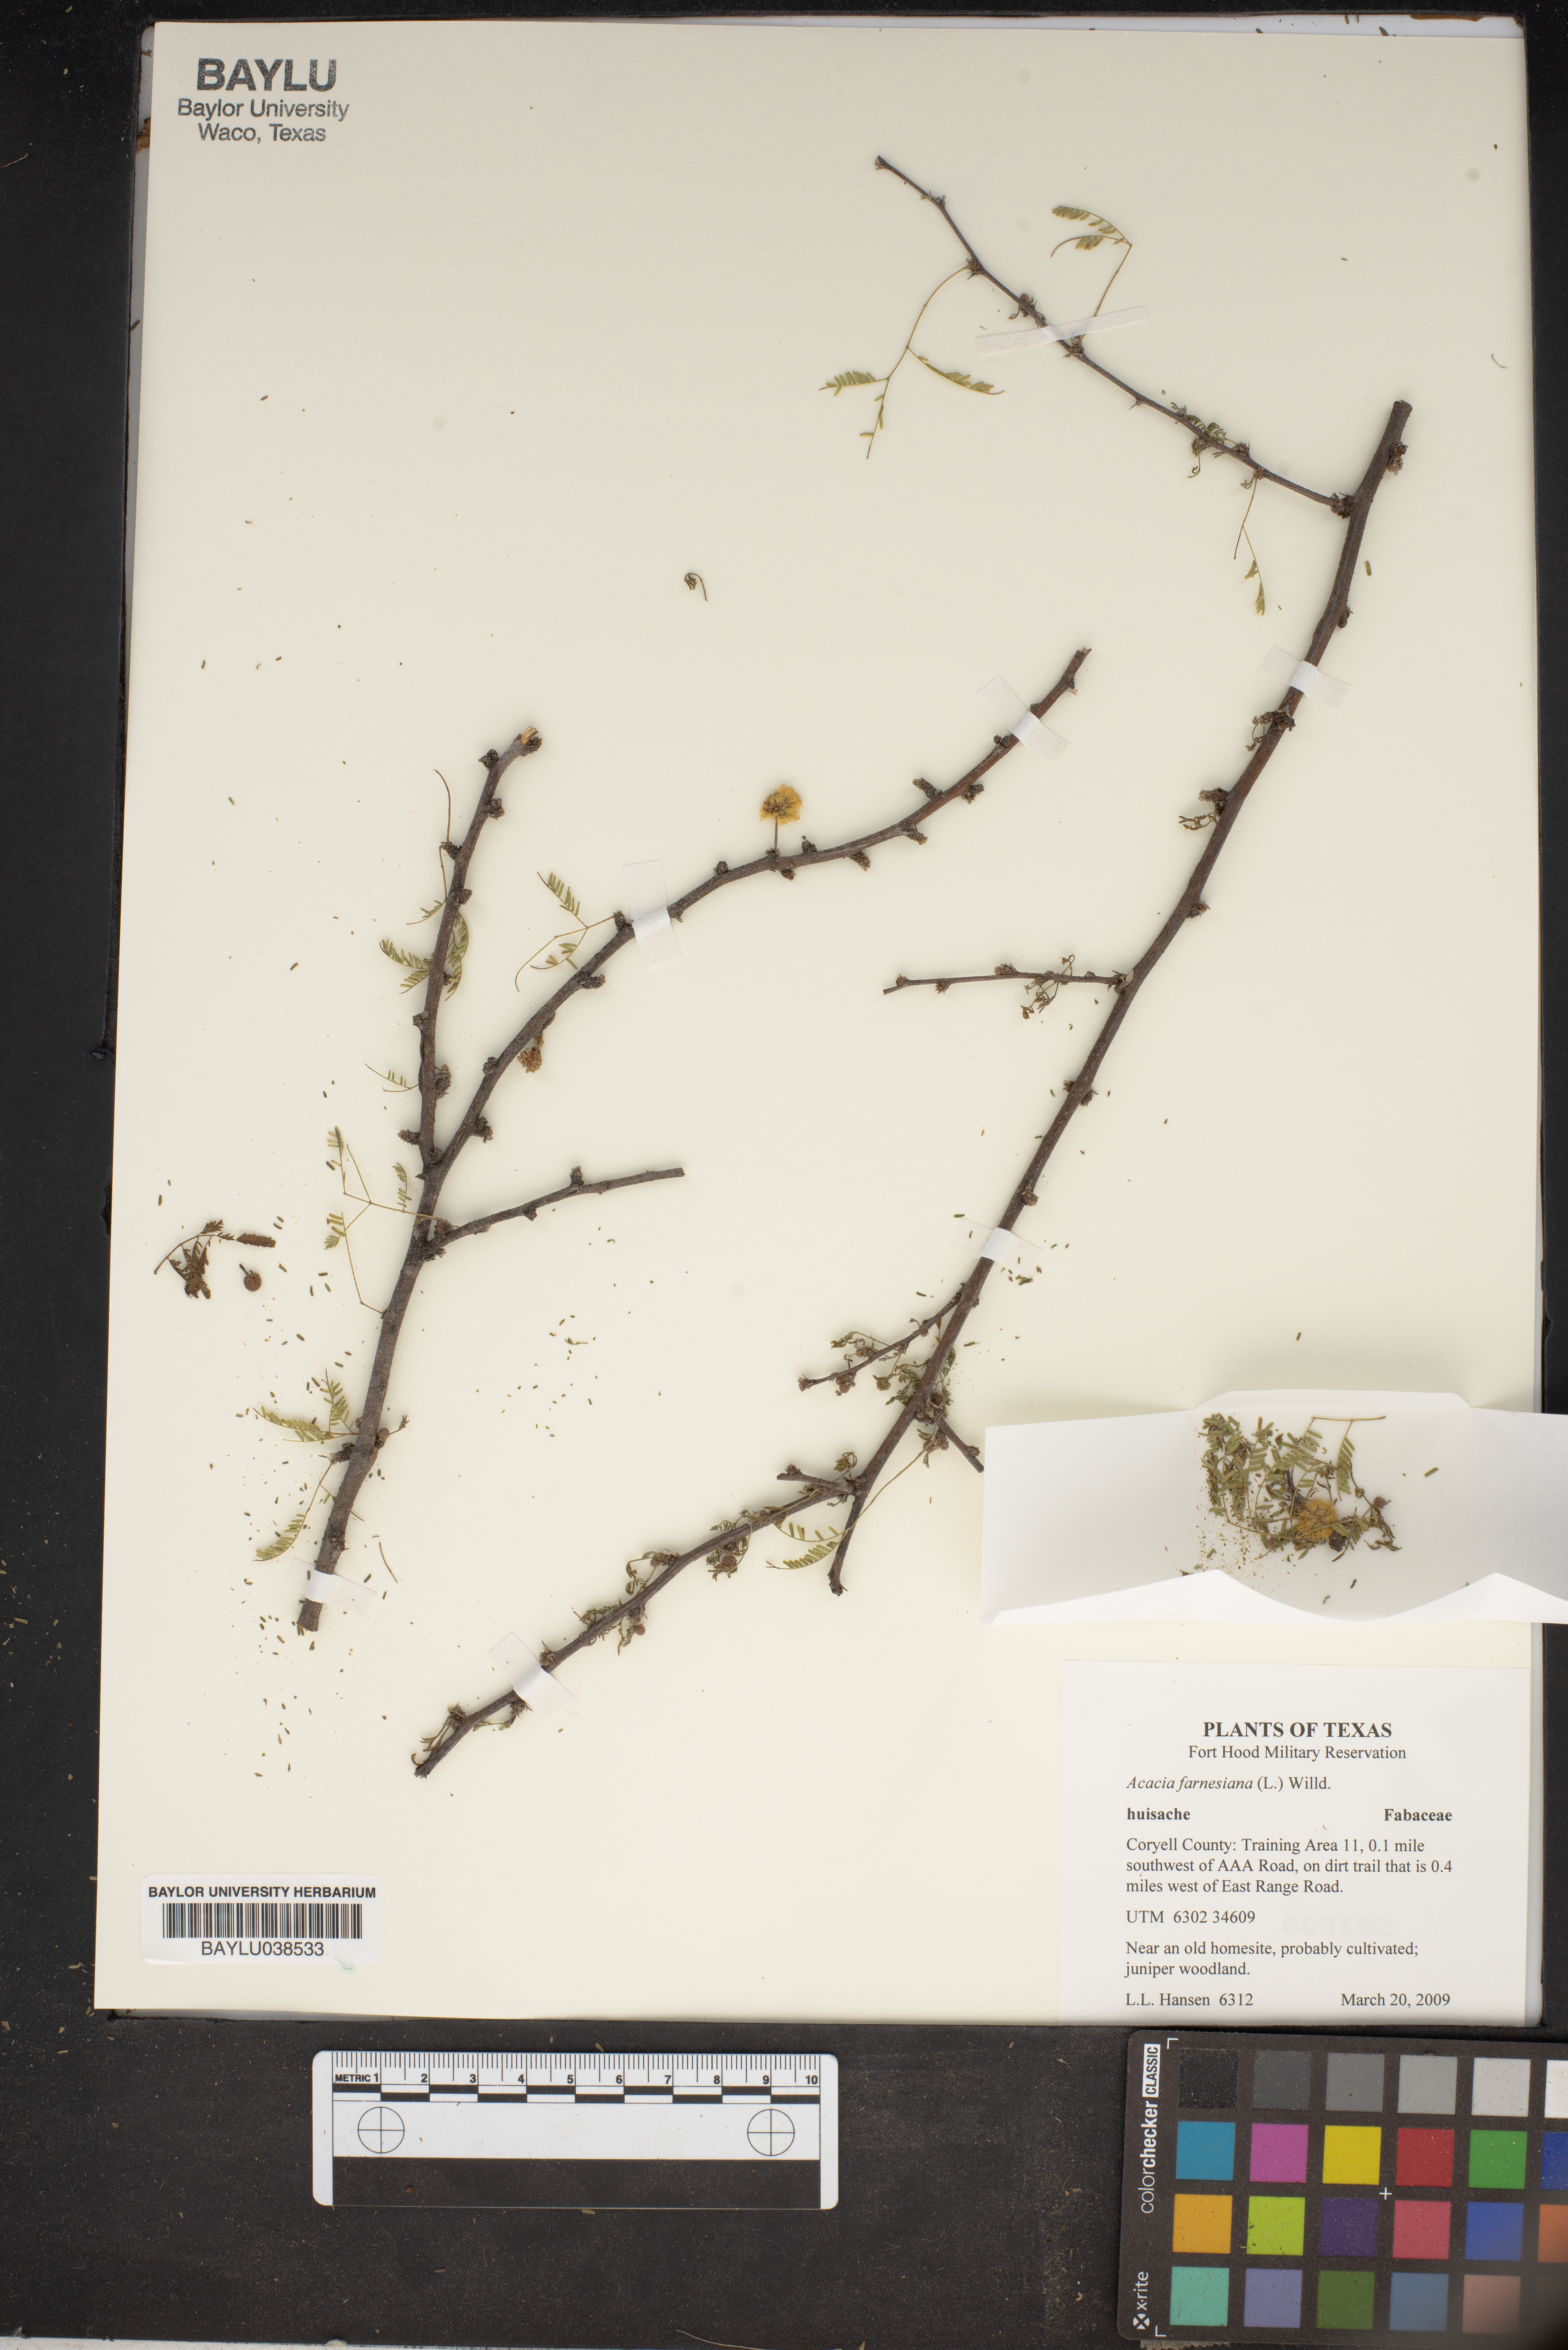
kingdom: Plantae
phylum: Tracheophyta
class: Magnoliopsida
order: Fabales
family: Fabaceae
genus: Vachellia
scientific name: Vachellia farnesiana
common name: Sweet acacia
